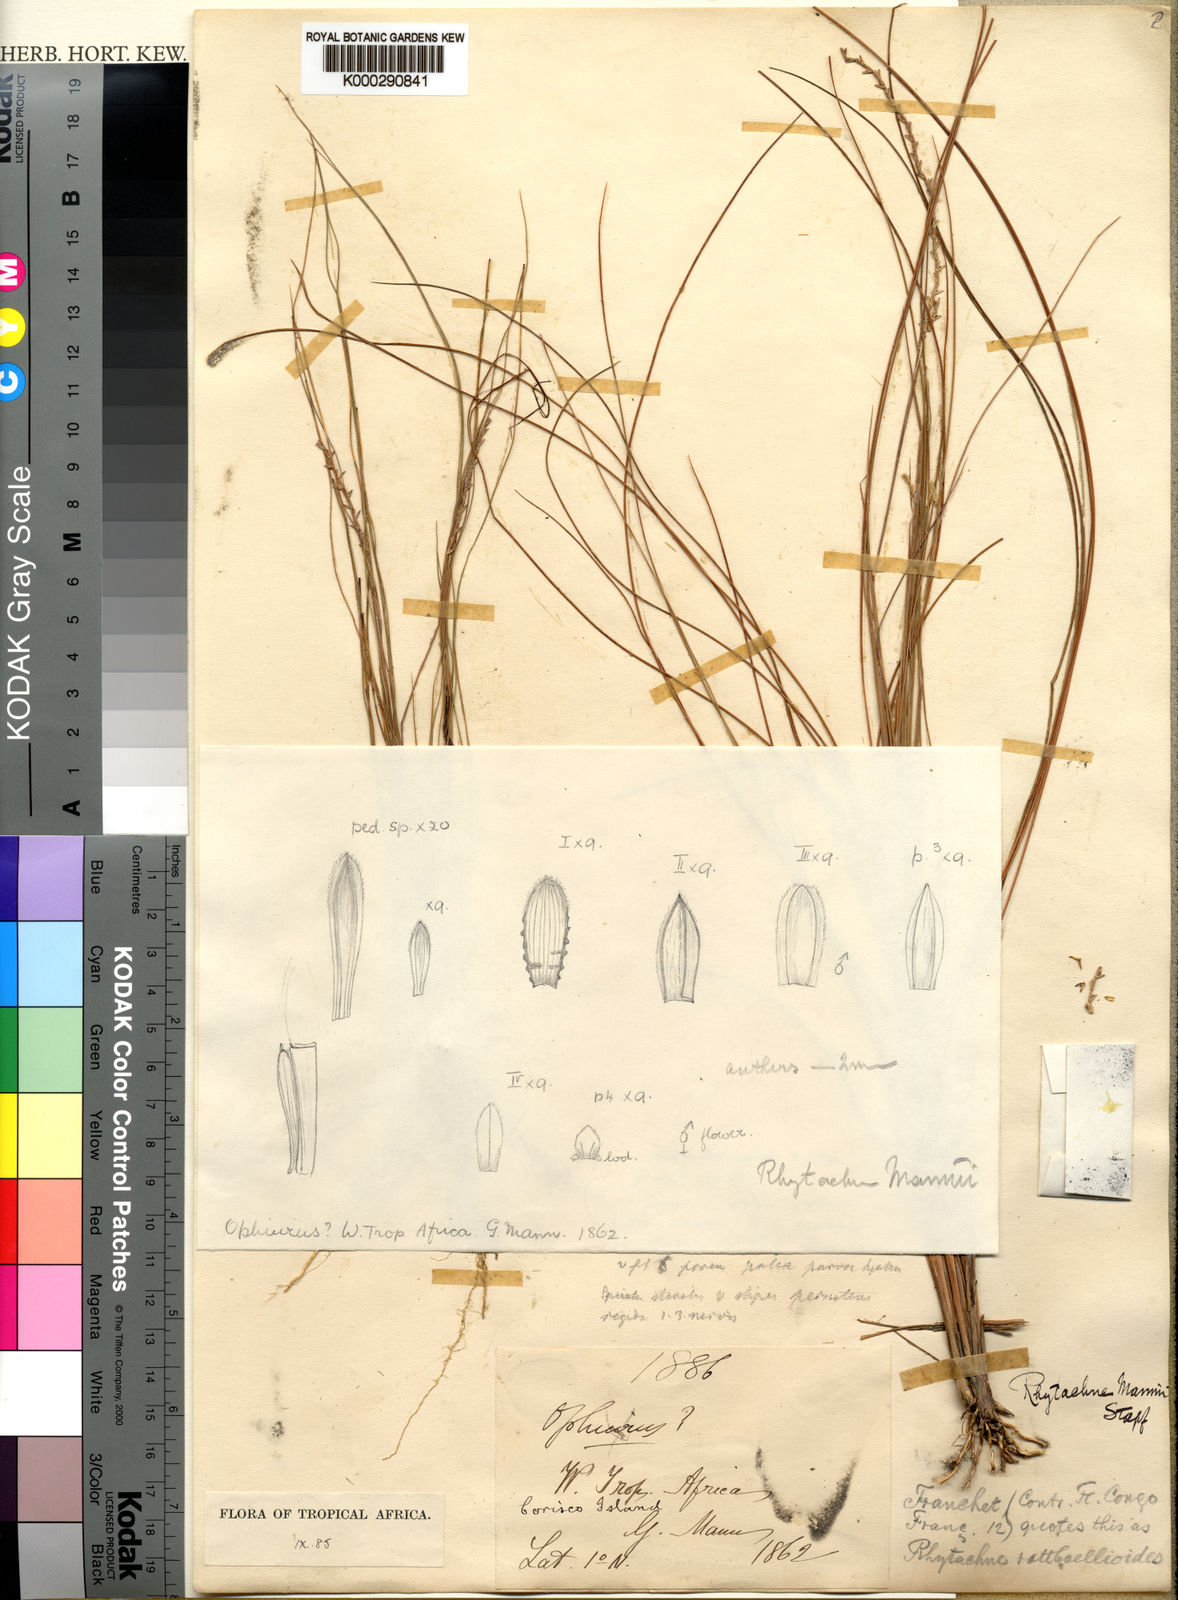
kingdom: Plantae
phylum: Tracheophyta
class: Liliopsida
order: Poales
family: Poaceae
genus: Rhytachne
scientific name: Rhytachne rottboellioides
